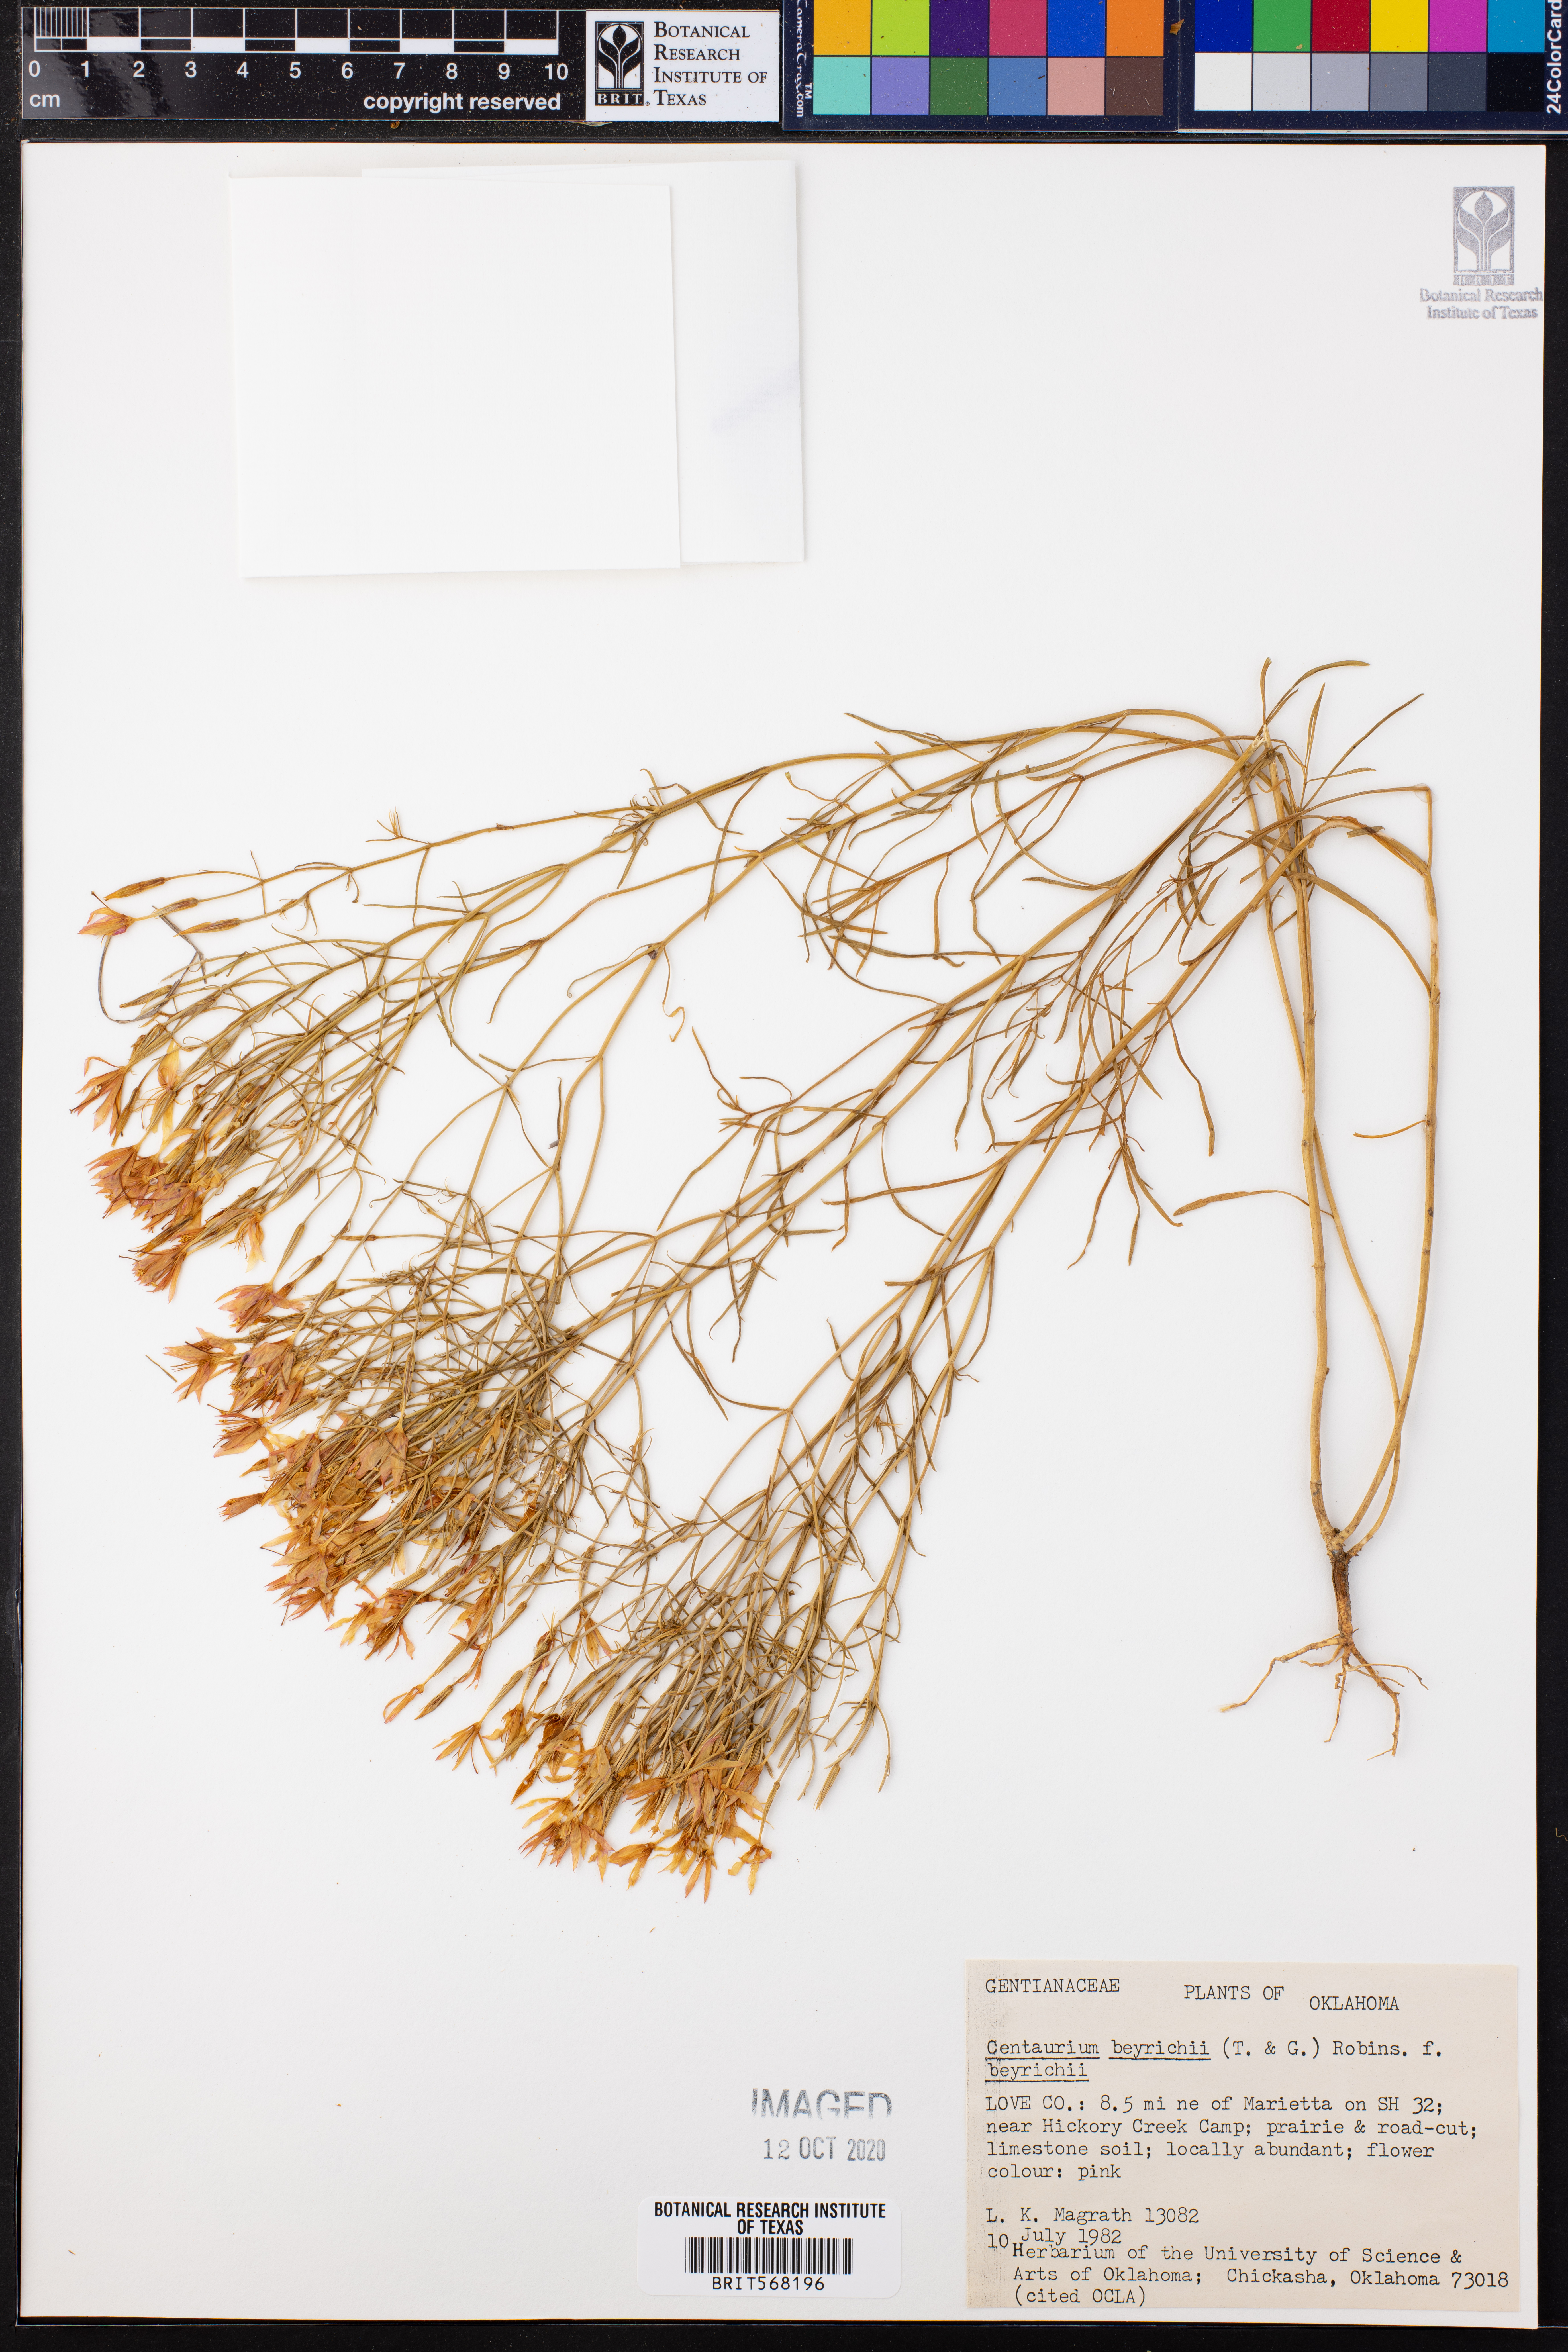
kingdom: Plantae
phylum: Tracheophyta
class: Magnoliopsida
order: Gentianales
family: Gentianaceae
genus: Zeltnera
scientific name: Zeltnera beyrichii
